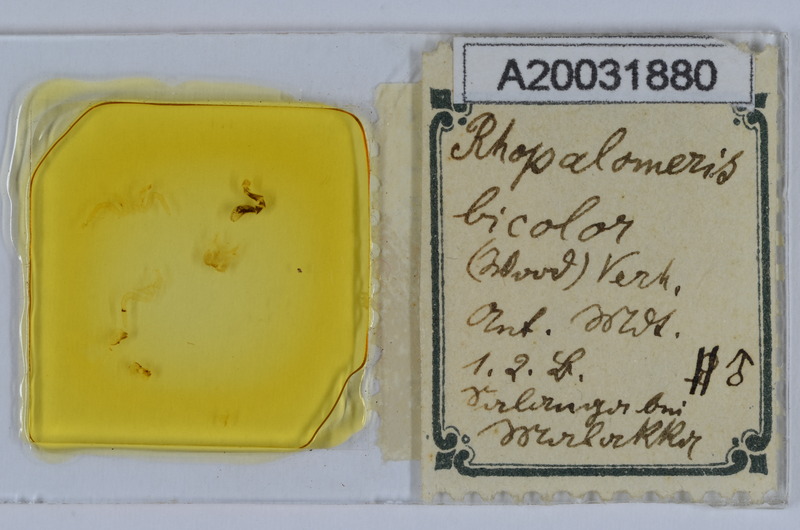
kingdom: Animalia
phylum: Arthropoda
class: Diplopoda
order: Glomerida
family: Glomeridae
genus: Rhopalomeris
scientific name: Rhopalomeris carnifex
